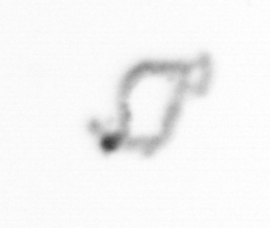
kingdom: Chromista
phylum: Ochrophyta
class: Bacillariophyceae
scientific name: Bacillariophyceae
